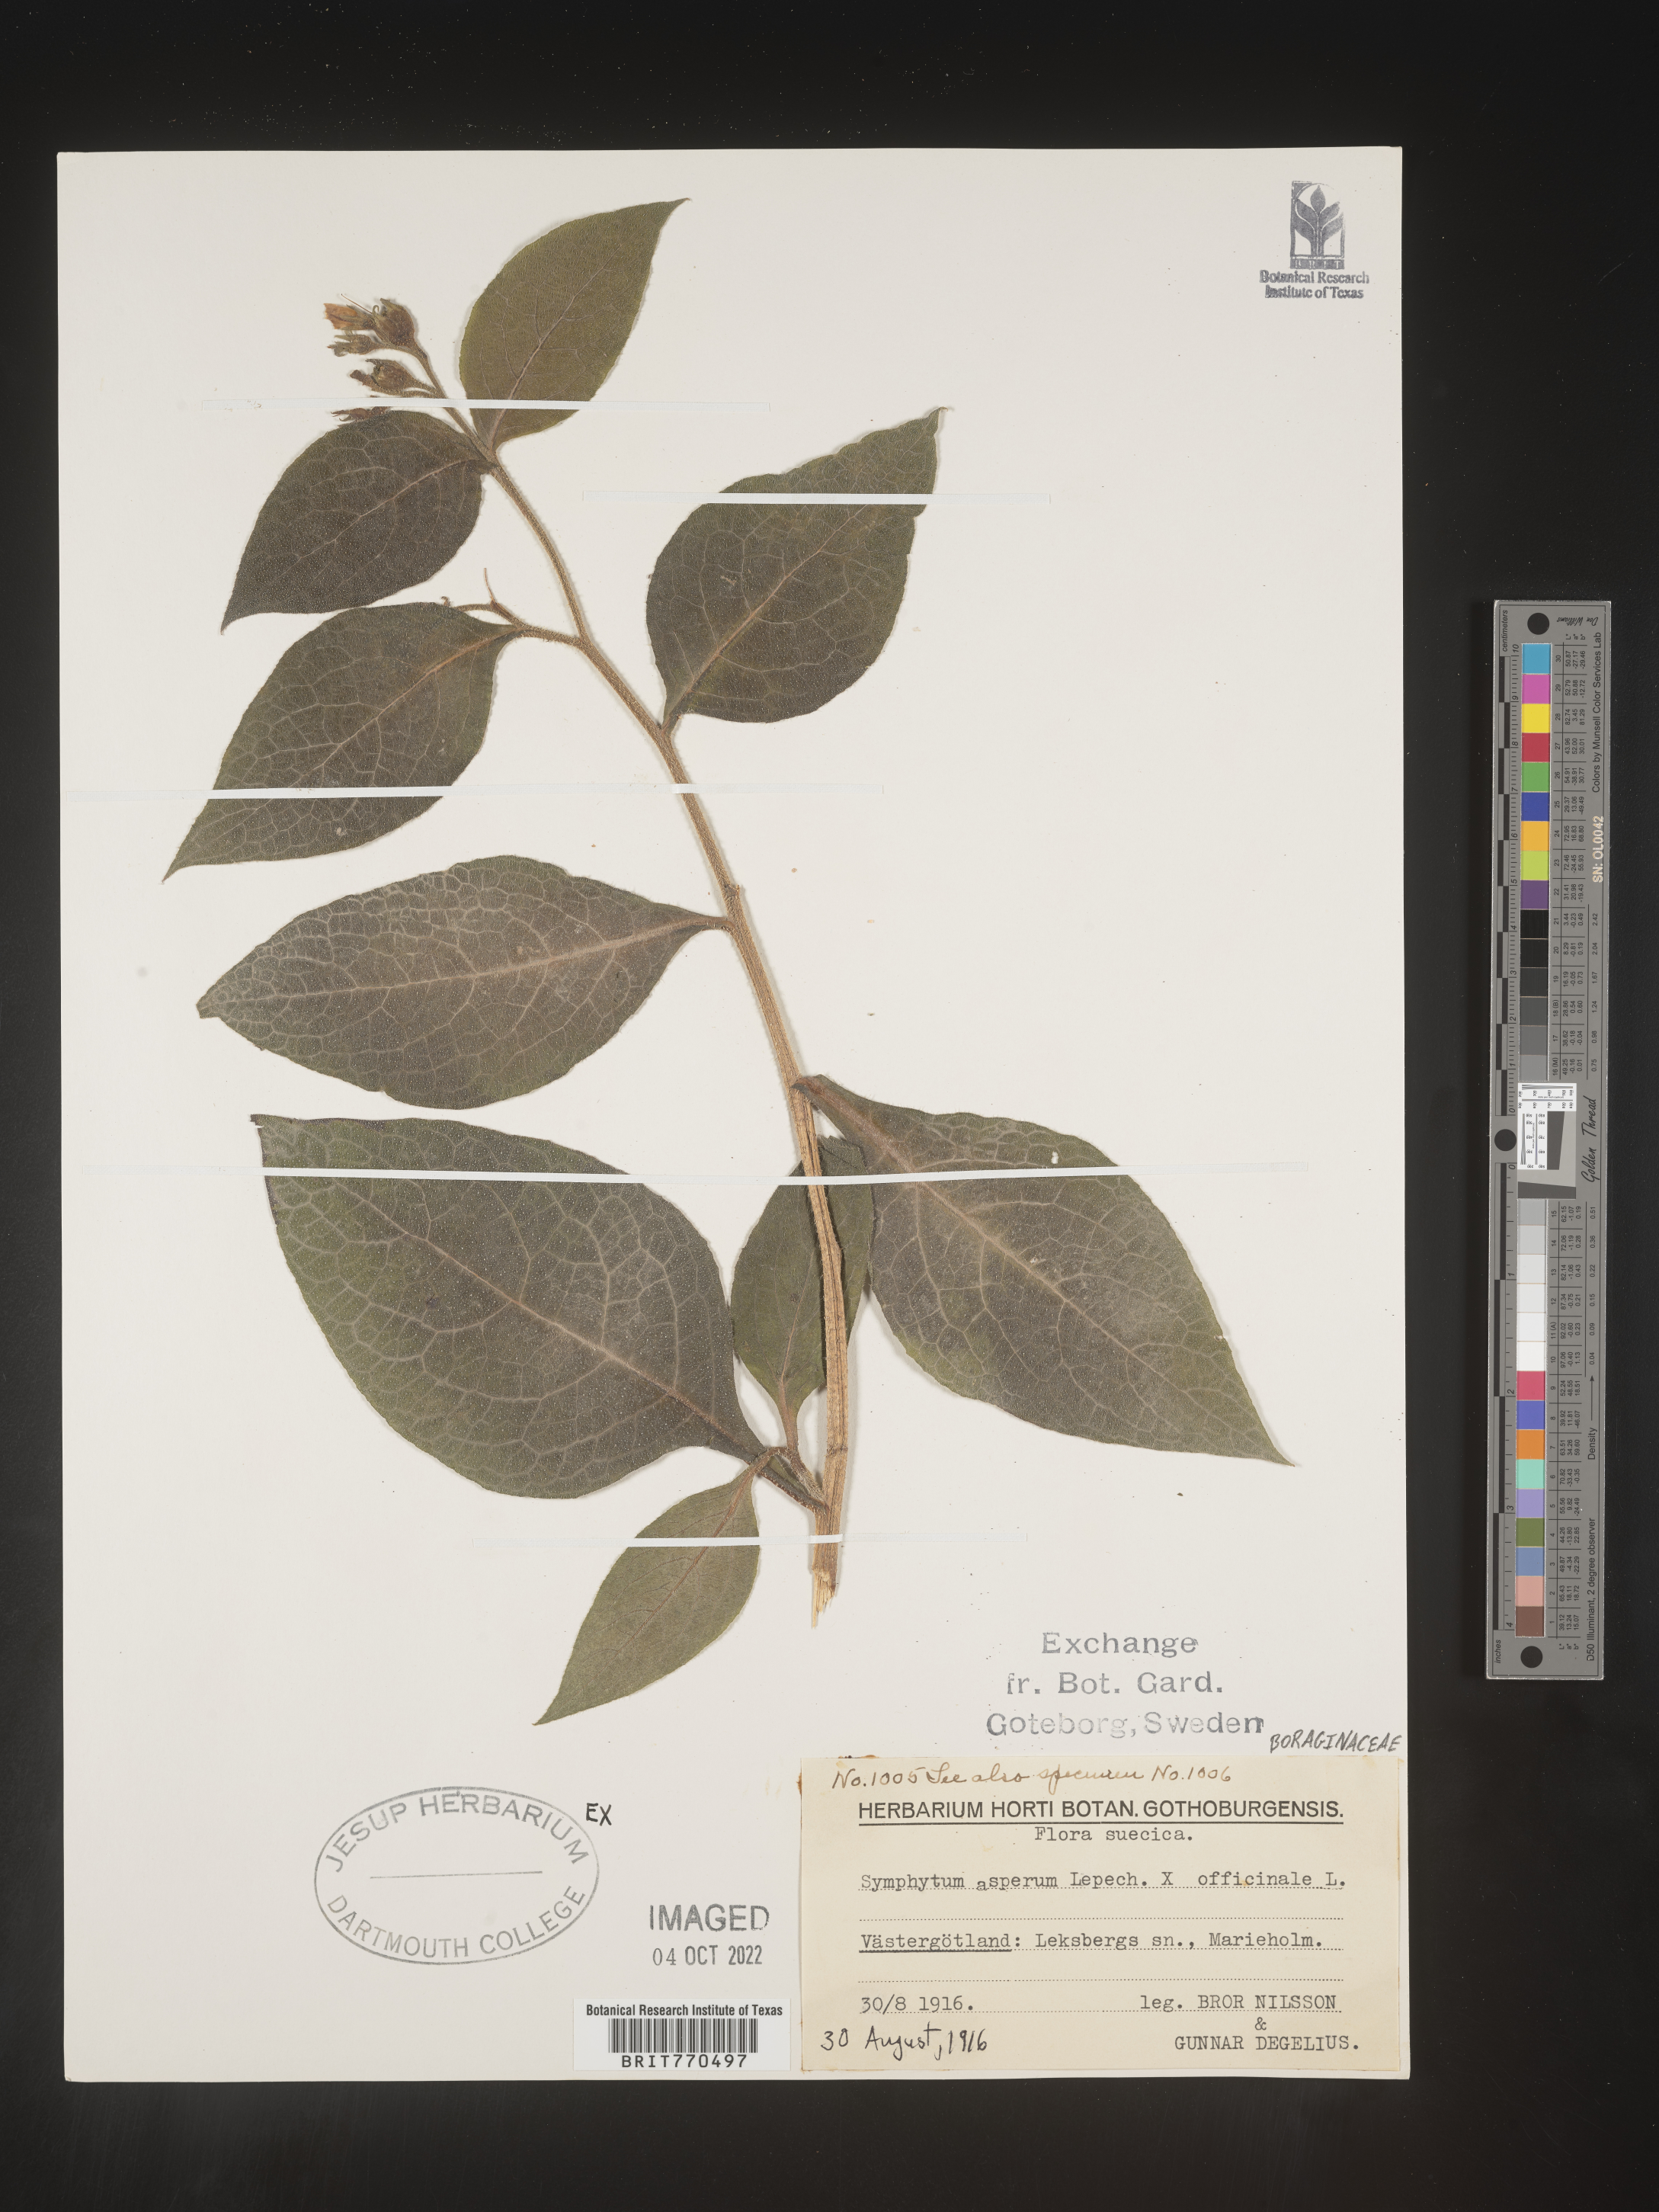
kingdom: Plantae
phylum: Tracheophyta
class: Magnoliopsida
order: Boraginales
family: Boraginaceae
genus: Symphytum
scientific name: Symphytum
